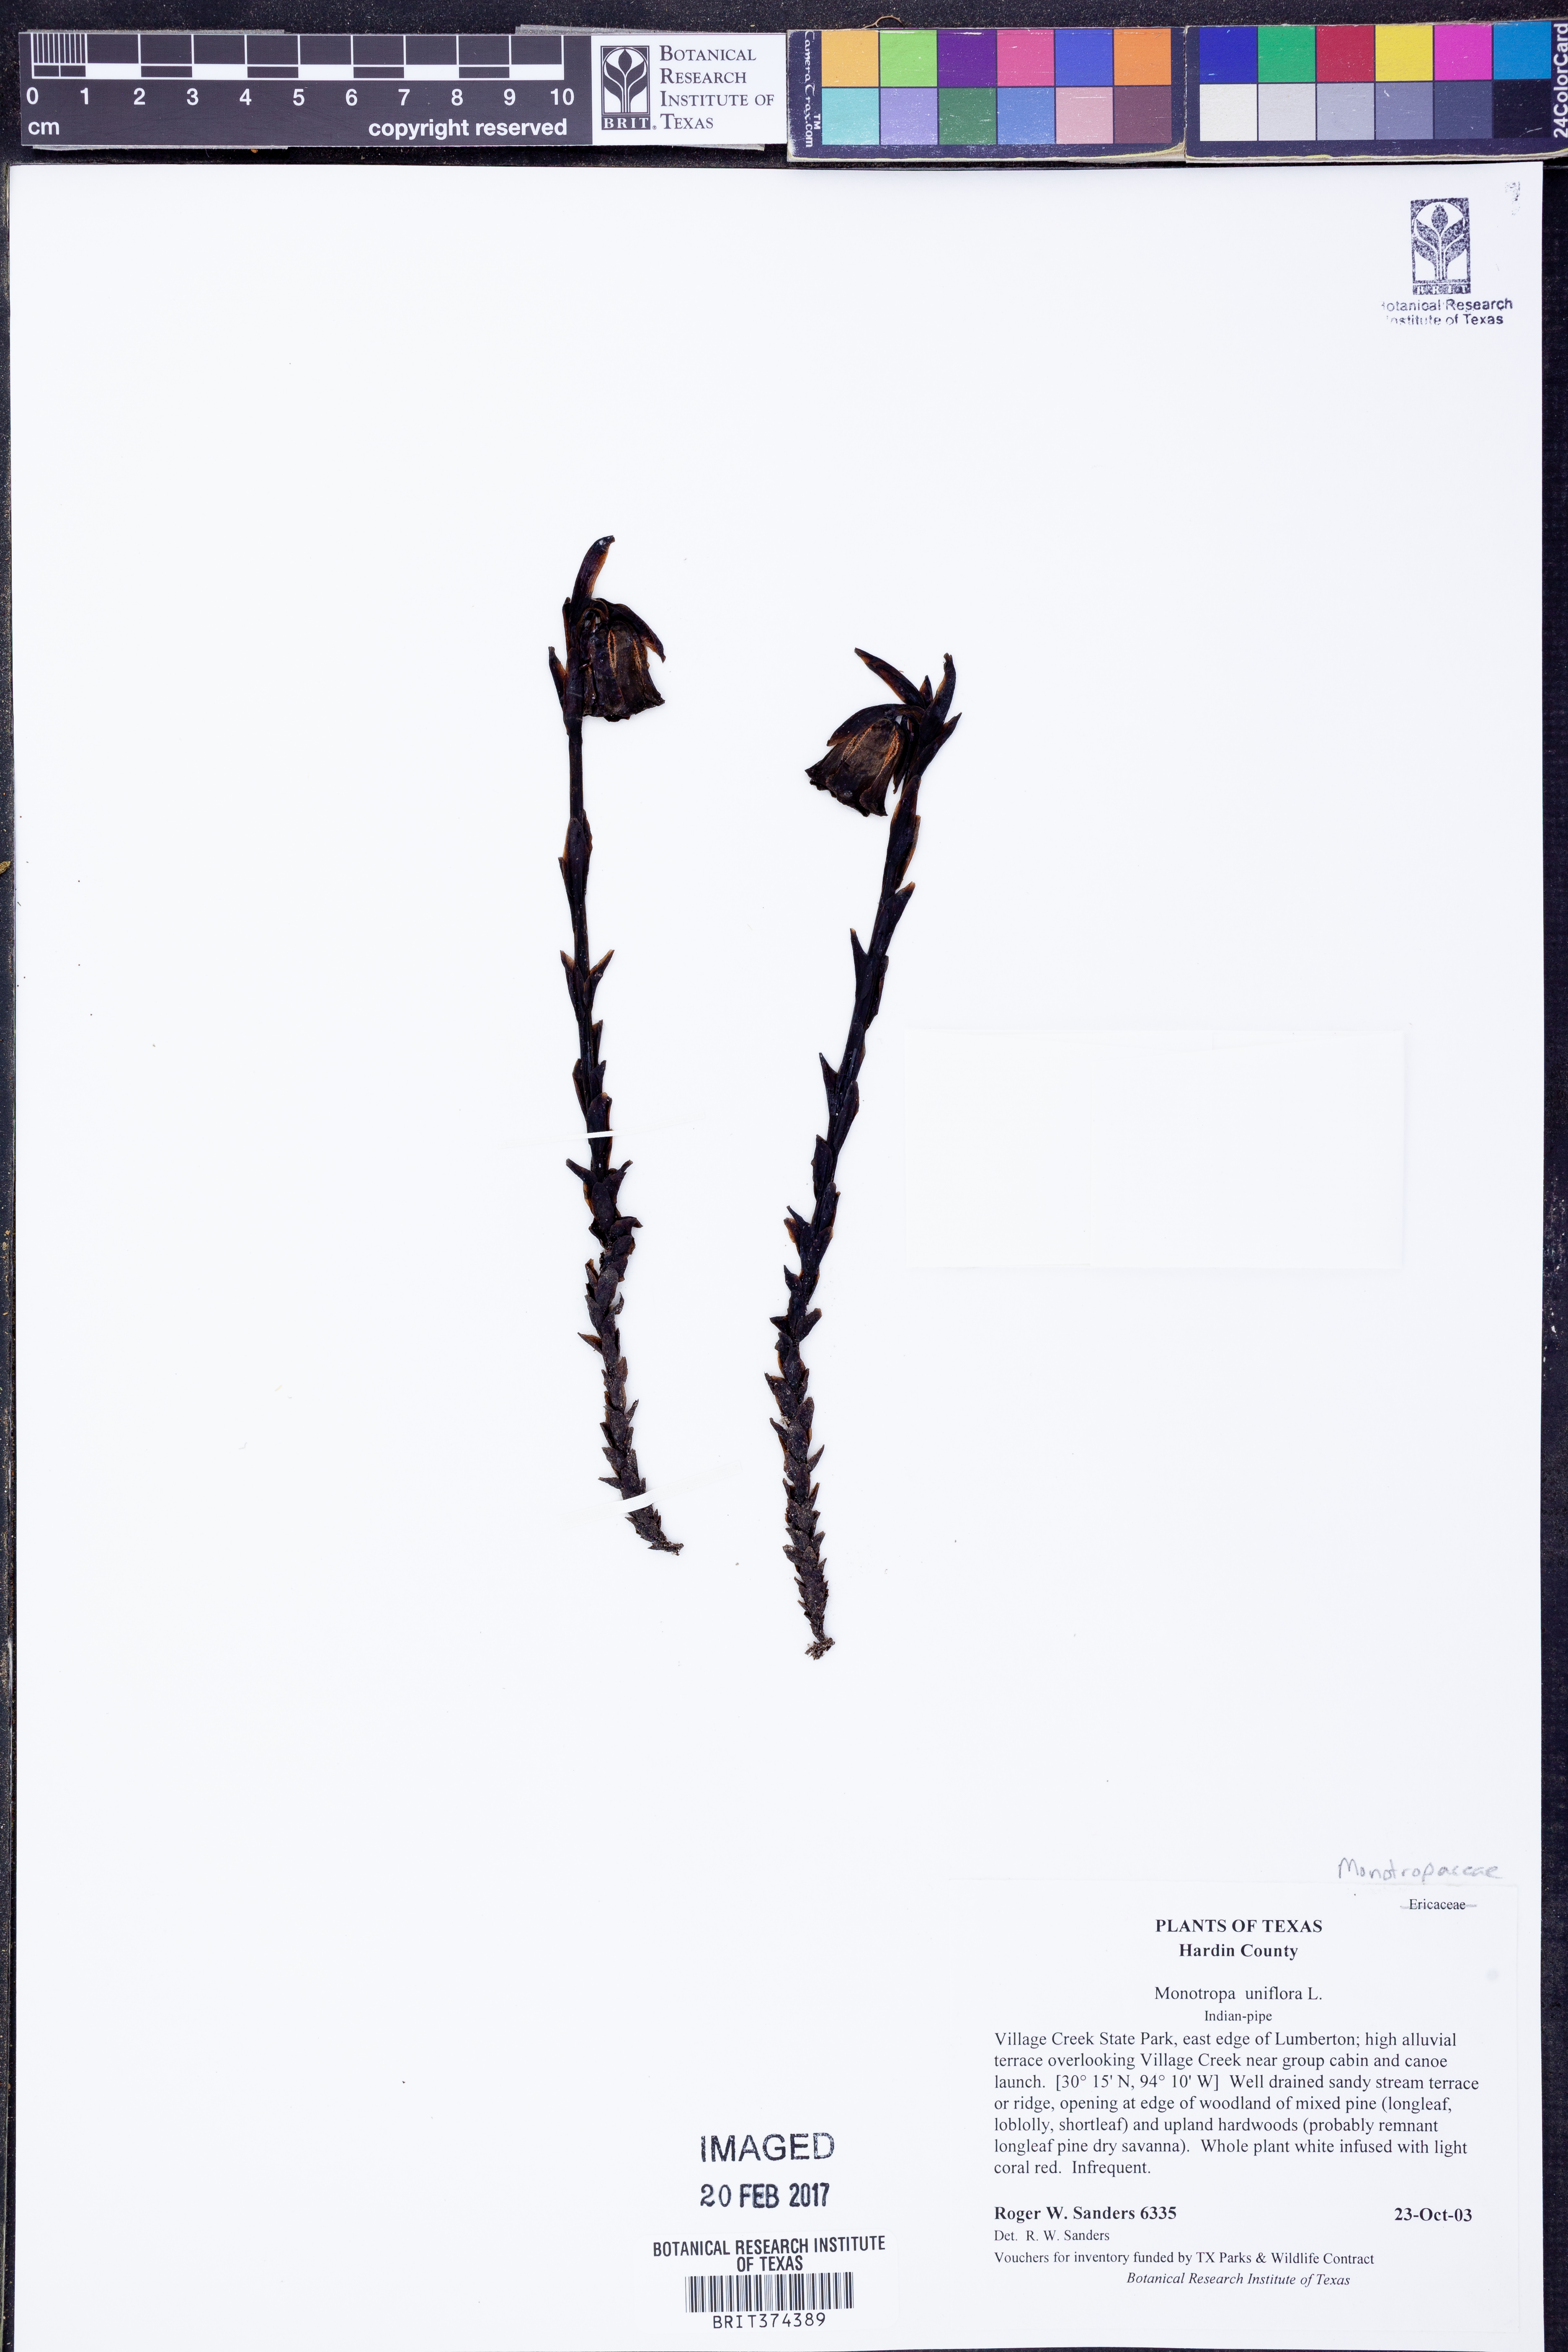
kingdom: Plantae
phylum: Tracheophyta
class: Magnoliopsida
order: Ericales
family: Ericaceae
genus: Monotropa
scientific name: Monotropa uniflora
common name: Convulsion root
